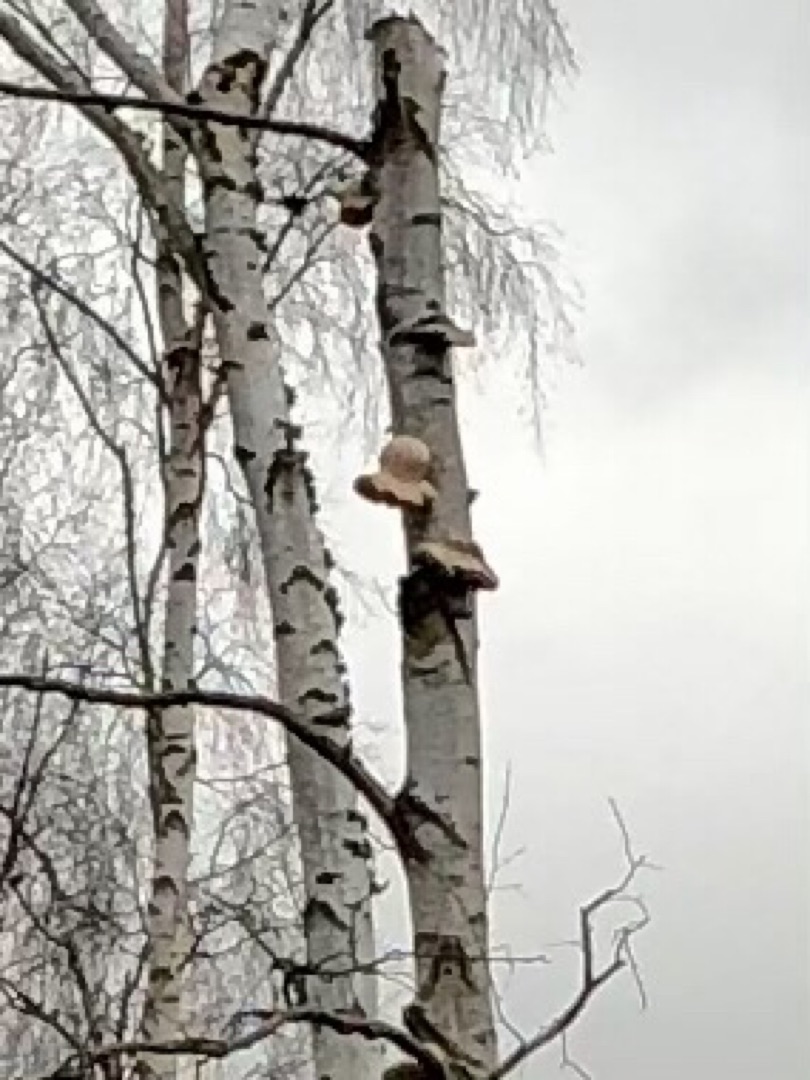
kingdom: Fungi
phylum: Basidiomycota
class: Agaricomycetes
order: Polyporales
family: Fomitopsidaceae
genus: Fomitopsis
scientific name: Fomitopsis betulina
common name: Birkeporesvamp
